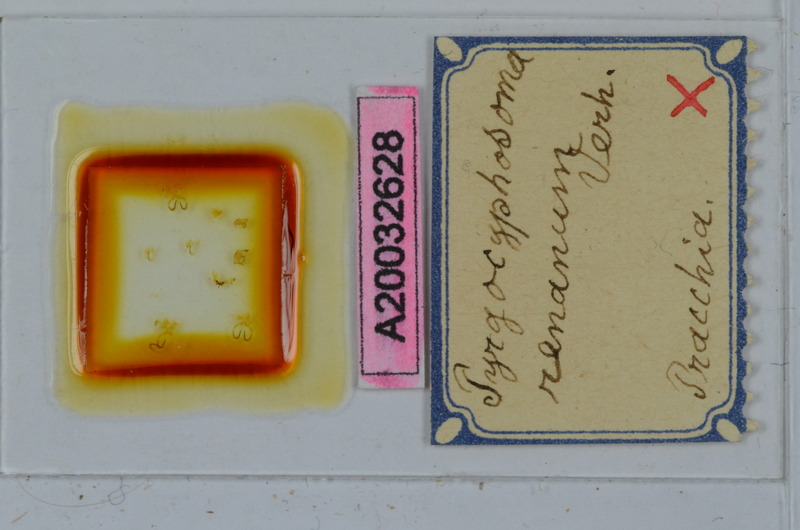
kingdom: Animalia
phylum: Arthropoda
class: Diplopoda
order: Chordeumatida
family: Craspedosomatidae
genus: Pyrgocyphosoma
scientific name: Pyrgocyphosoma renanum
